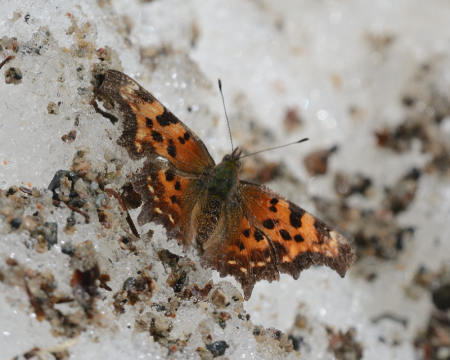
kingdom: Animalia
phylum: Arthropoda
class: Insecta
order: Lepidoptera
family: Nymphalidae
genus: Polygonia
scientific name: Polygonia faunus
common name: Green Comma
